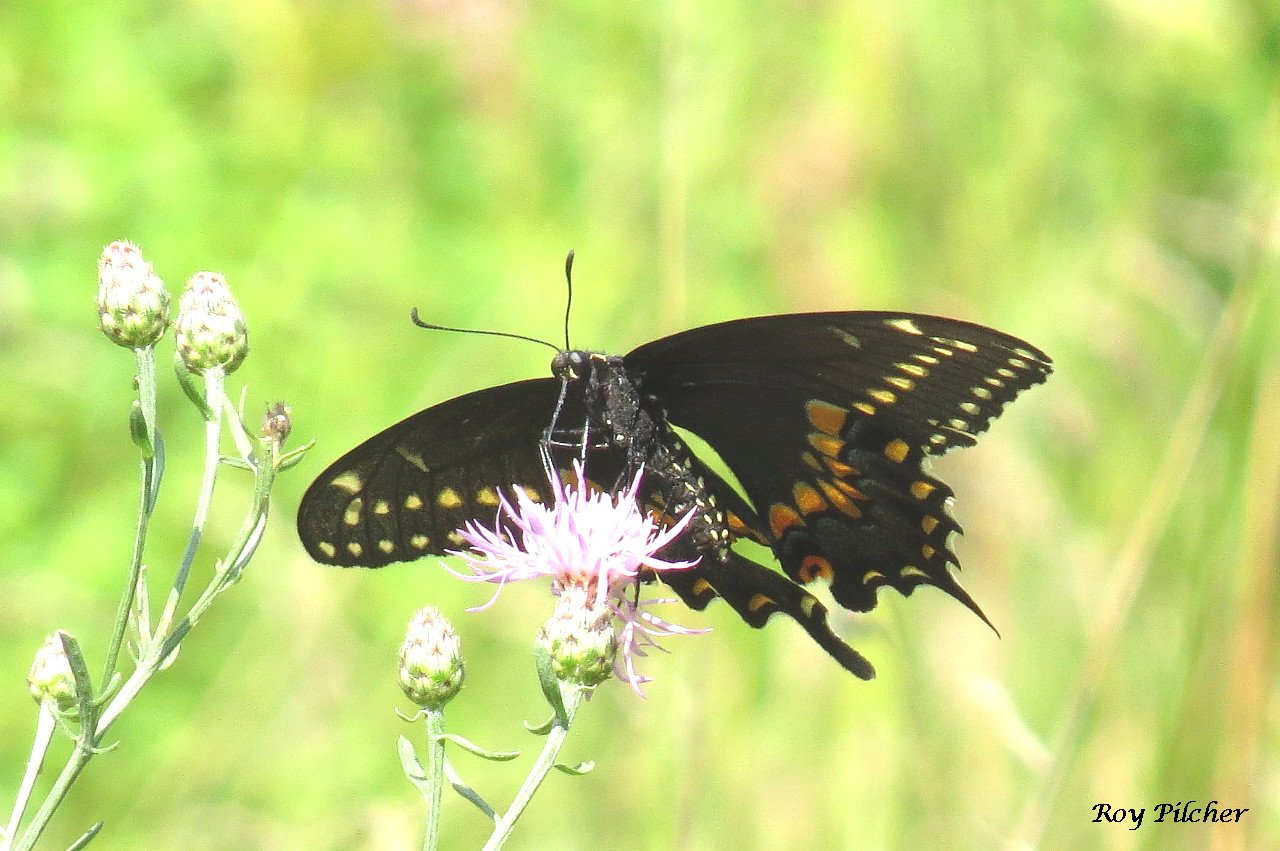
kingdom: Animalia
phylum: Arthropoda
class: Insecta
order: Lepidoptera
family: Papilionidae
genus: Papilio
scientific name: Papilio polyxenes
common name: Black Swallowtail
